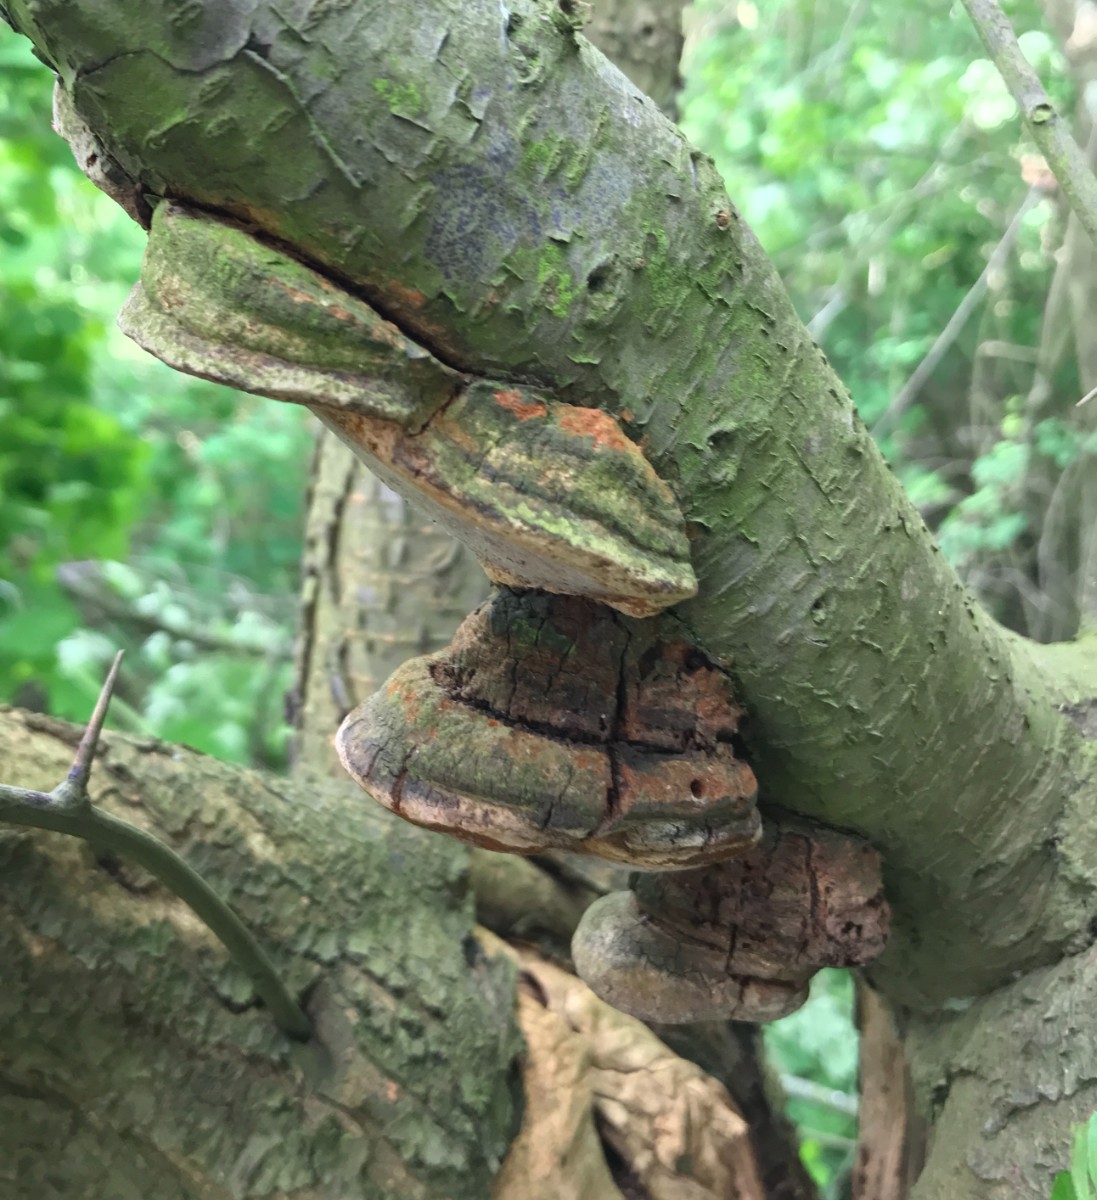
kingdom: Fungi
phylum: Basidiomycota
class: Agaricomycetes
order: Hymenochaetales
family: Hymenochaetaceae
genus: Phellinus
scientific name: Phellinus pomaceus
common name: blomme-ildporesvamp
